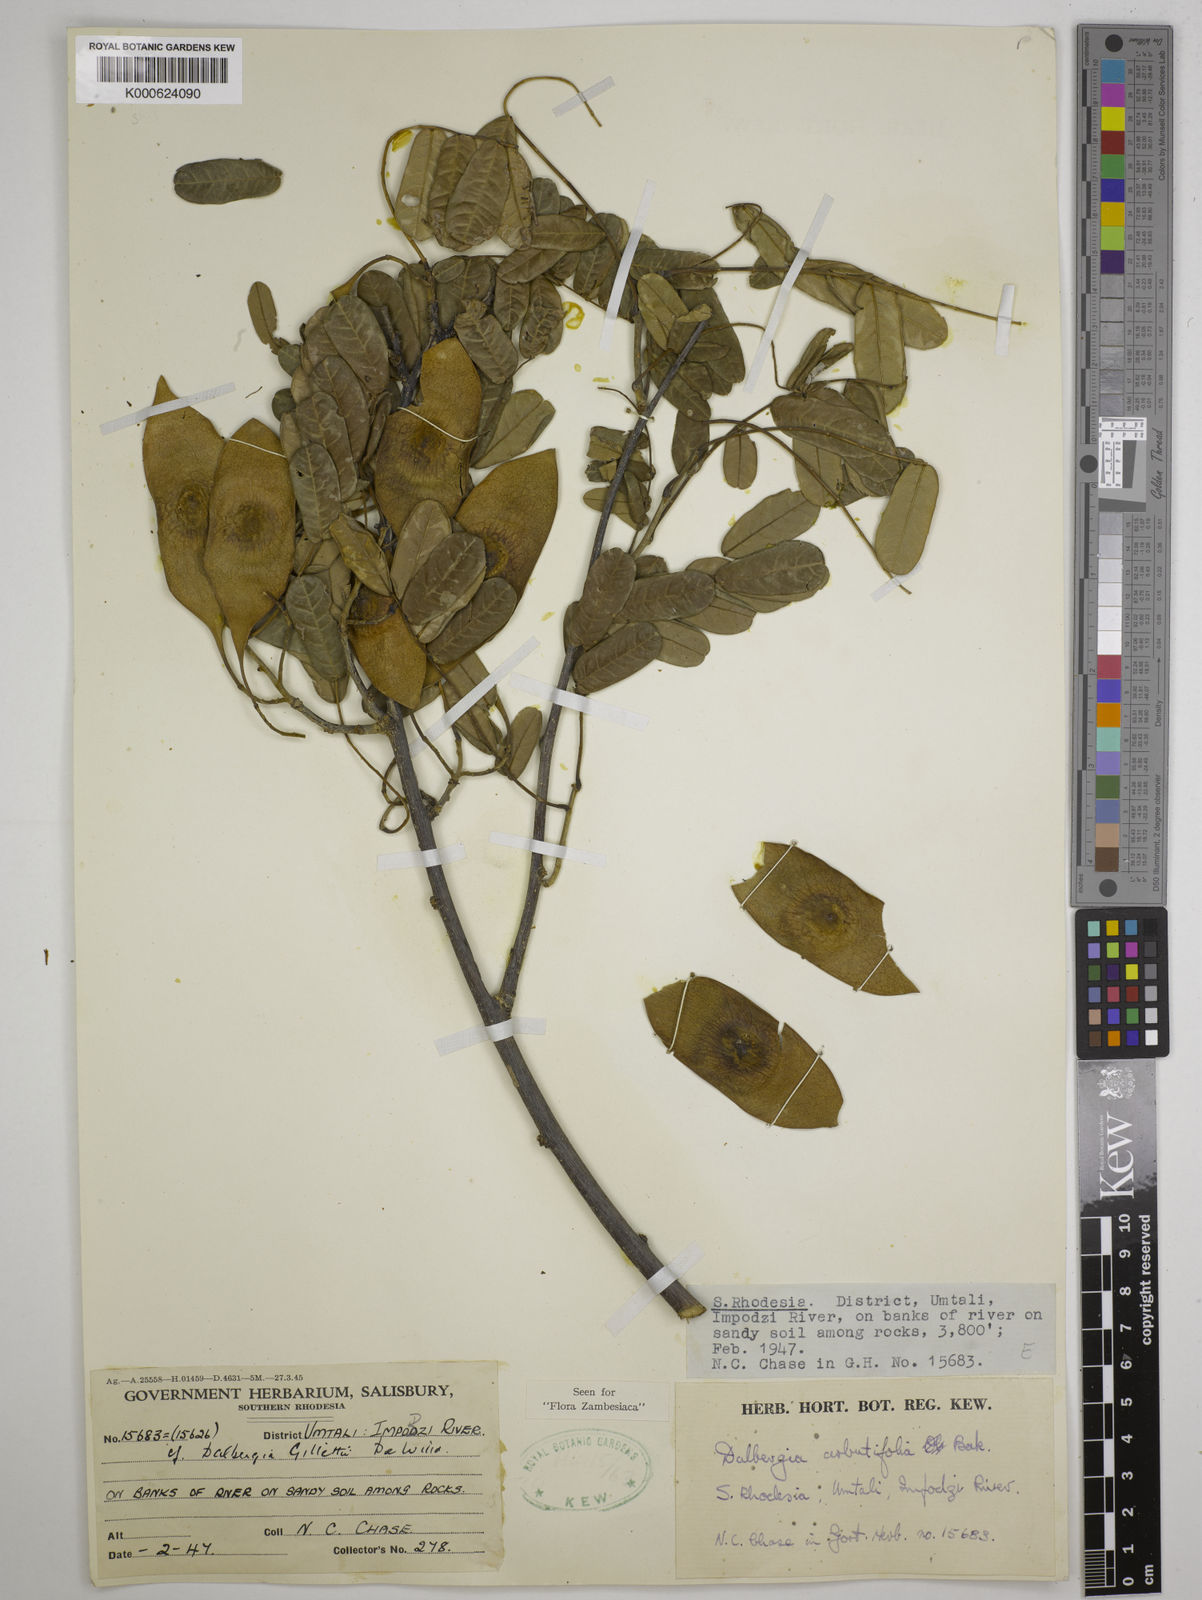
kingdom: Plantae
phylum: Tracheophyta
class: Magnoliopsida
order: Fabales
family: Fabaceae
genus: Dalbergia
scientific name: Dalbergia arbutifolia
